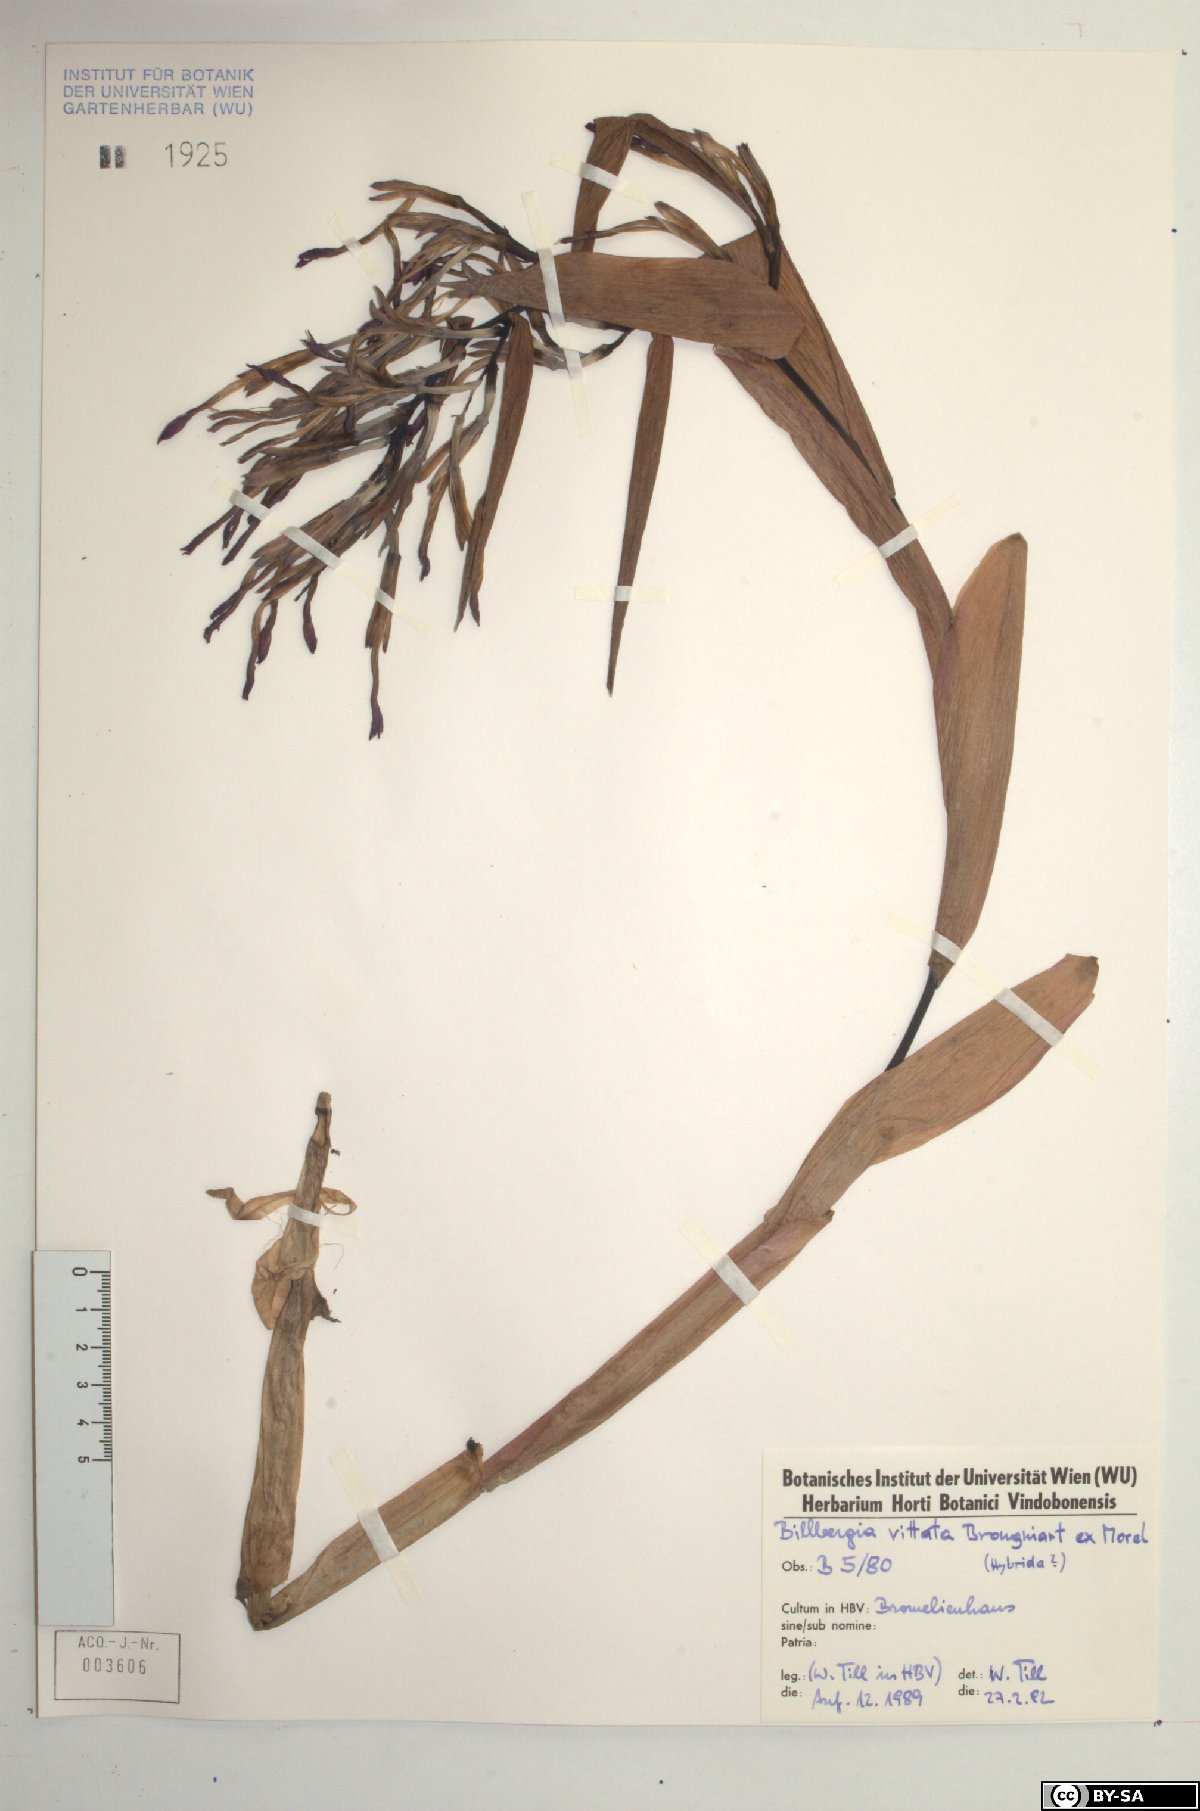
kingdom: Plantae
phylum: Tracheophyta
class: Liliopsida
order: Poales
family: Bromeliaceae
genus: Billbergia
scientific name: Billbergia vittata
